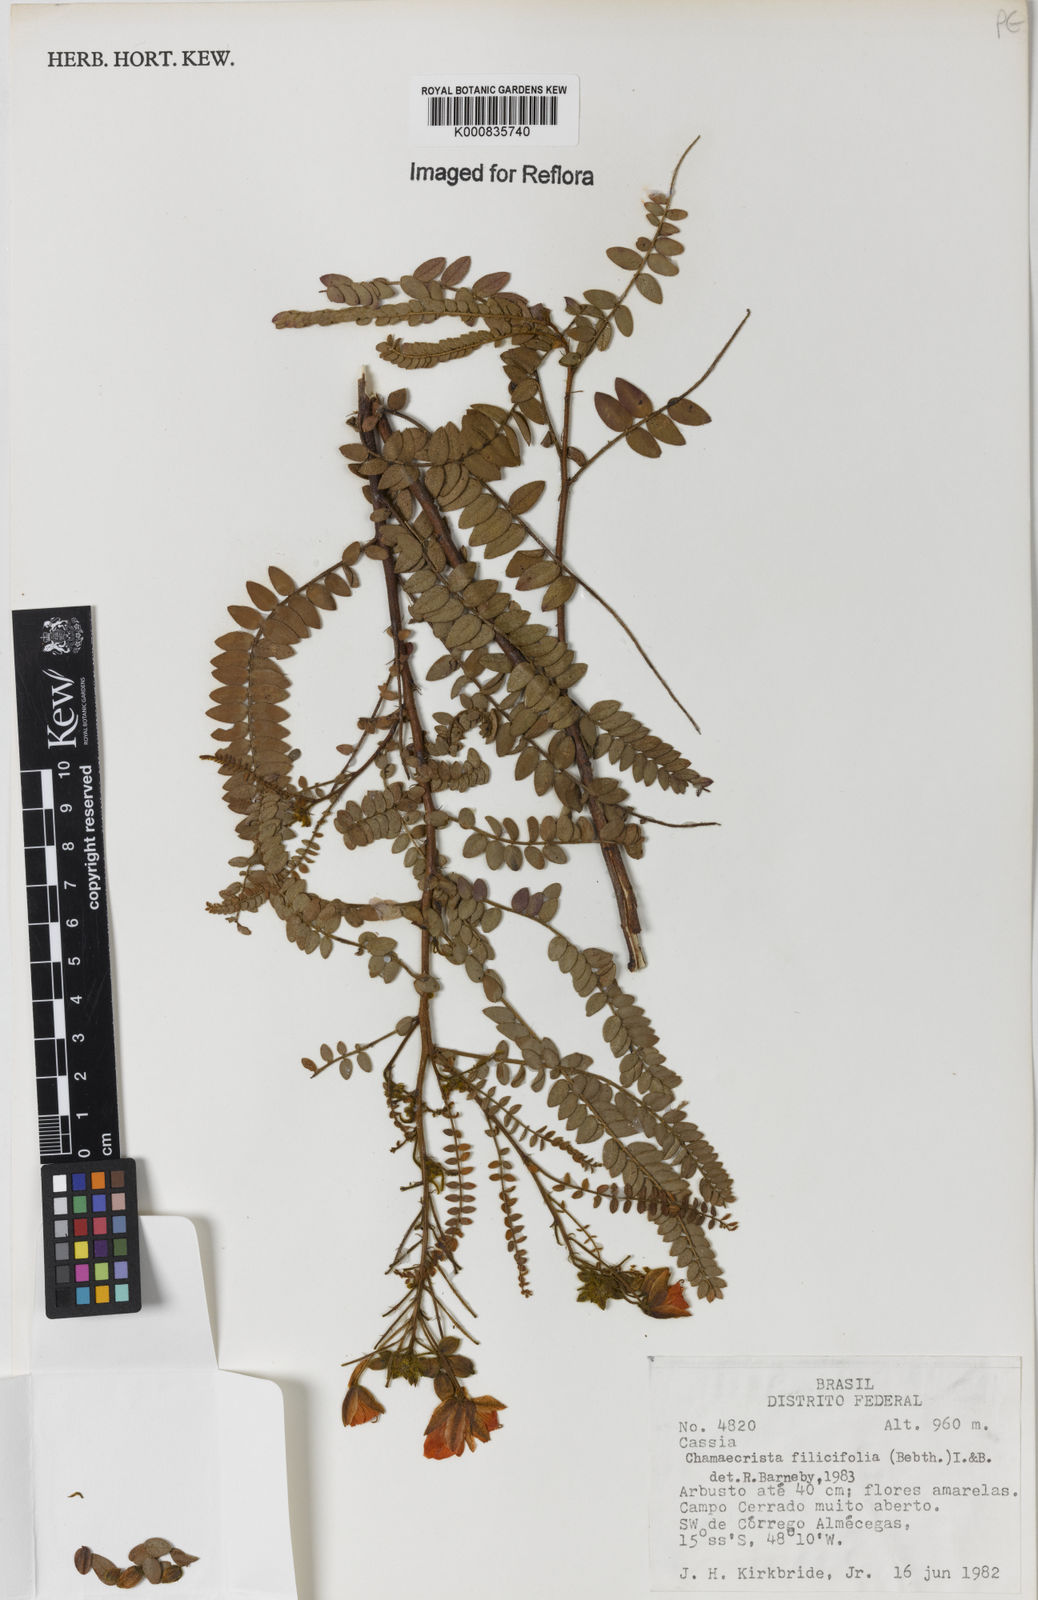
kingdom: Plantae
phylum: Tracheophyta
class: Magnoliopsida
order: Fabales
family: Fabaceae
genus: Chamaecrista
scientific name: Chamaecrista filicifolia
